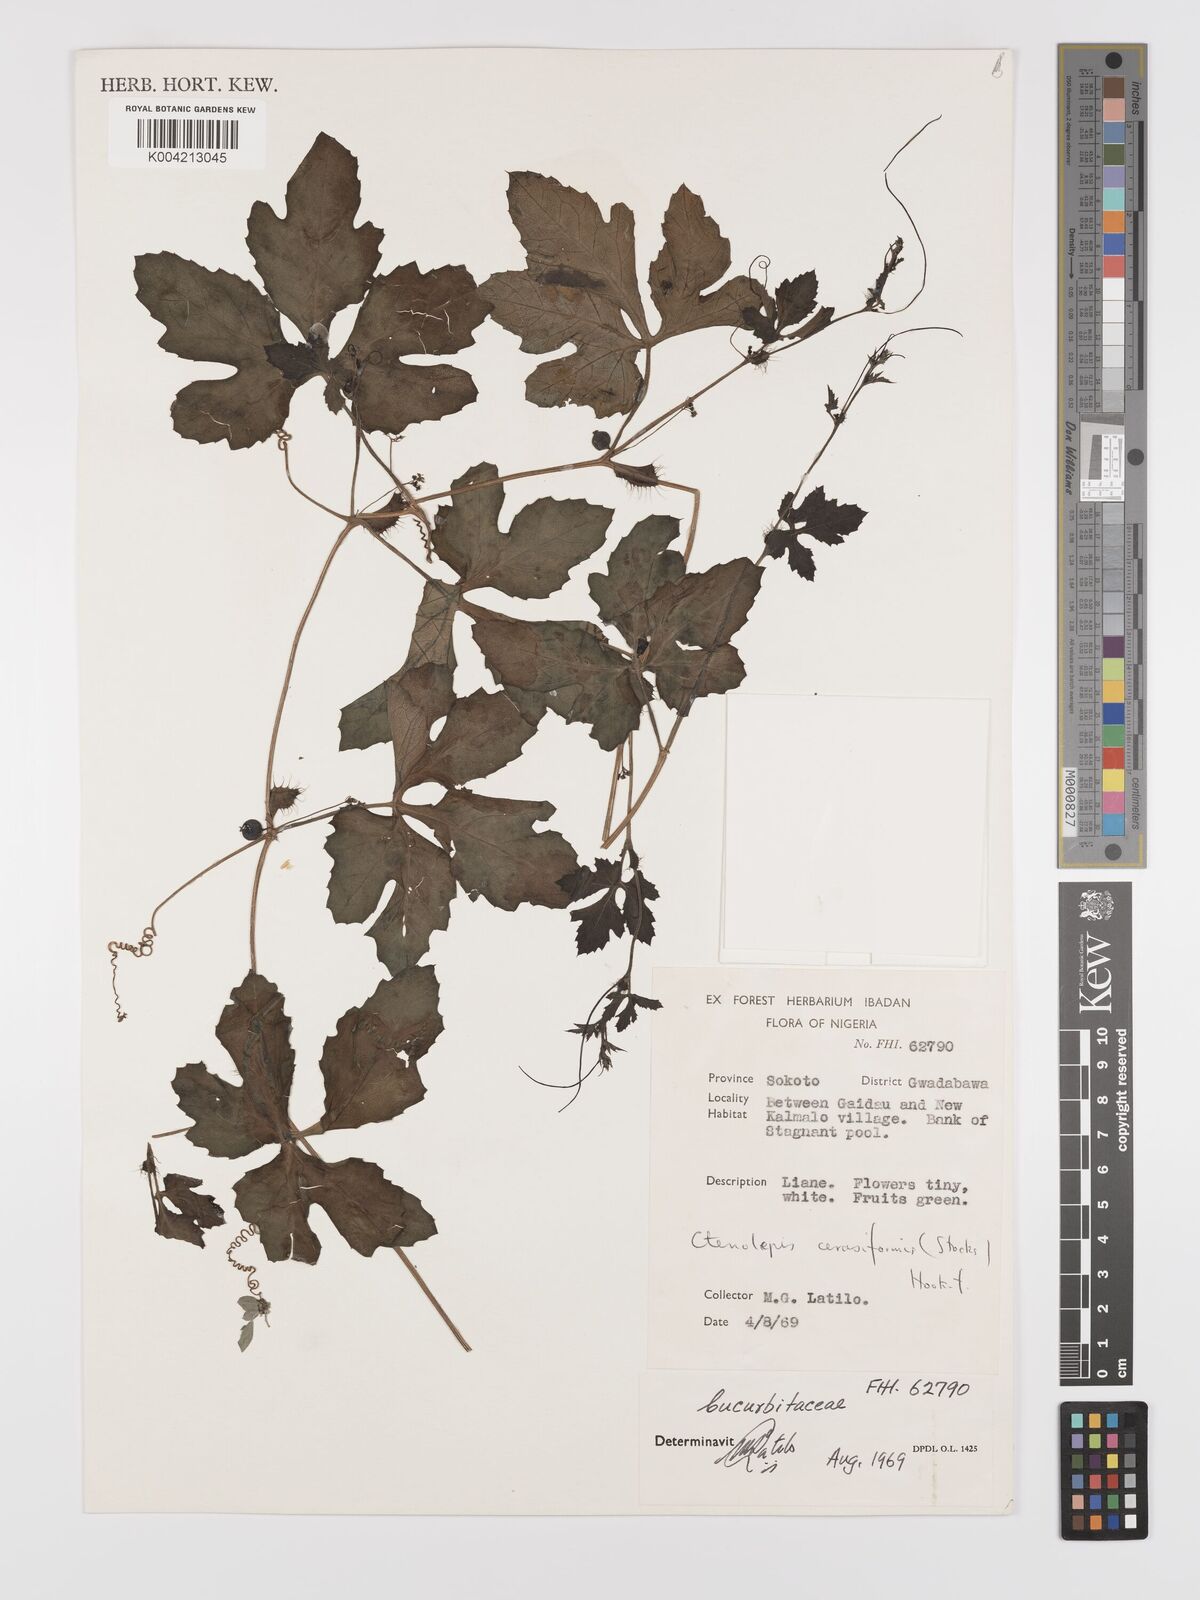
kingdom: Plantae
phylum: Tracheophyta
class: Magnoliopsida
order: Cucurbitales
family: Cucurbitaceae
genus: Blastania
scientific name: Blastania cerasiformis
